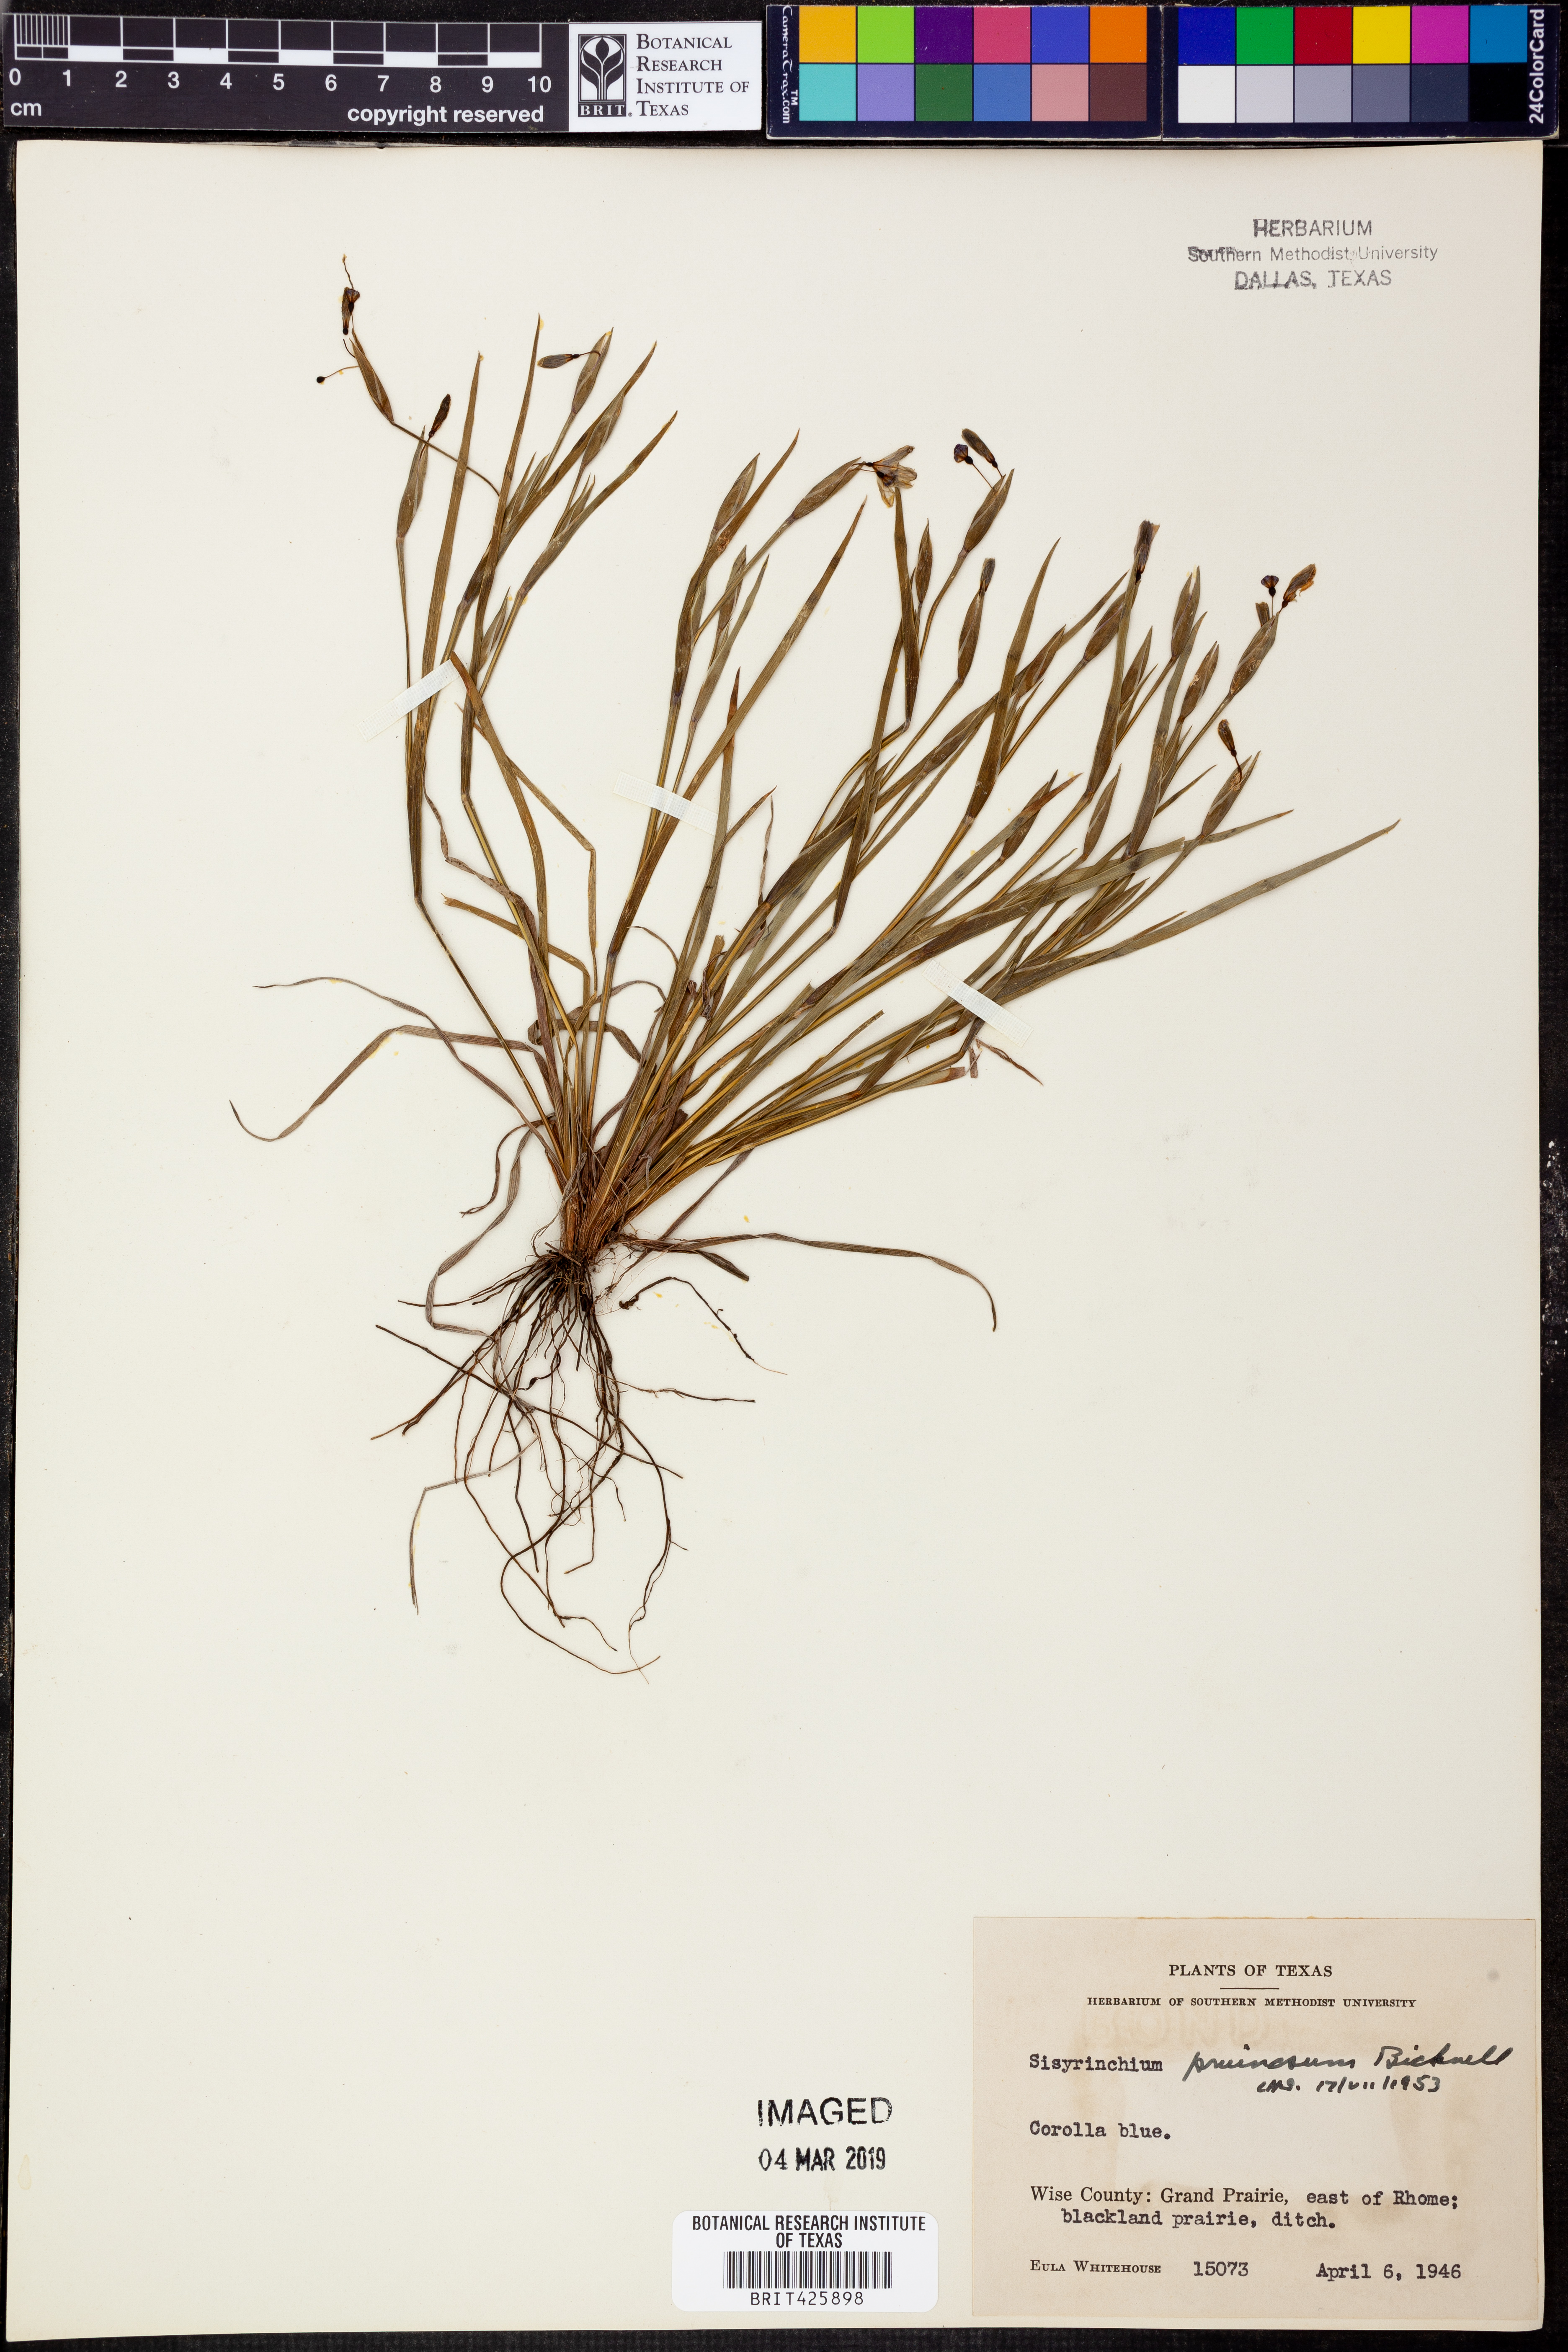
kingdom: Plantae
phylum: Tracheophyta
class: Liliopsida
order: Asparagales
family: Iridaceae
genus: Sisyrinchium
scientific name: Sisyrinchium pruinosum
